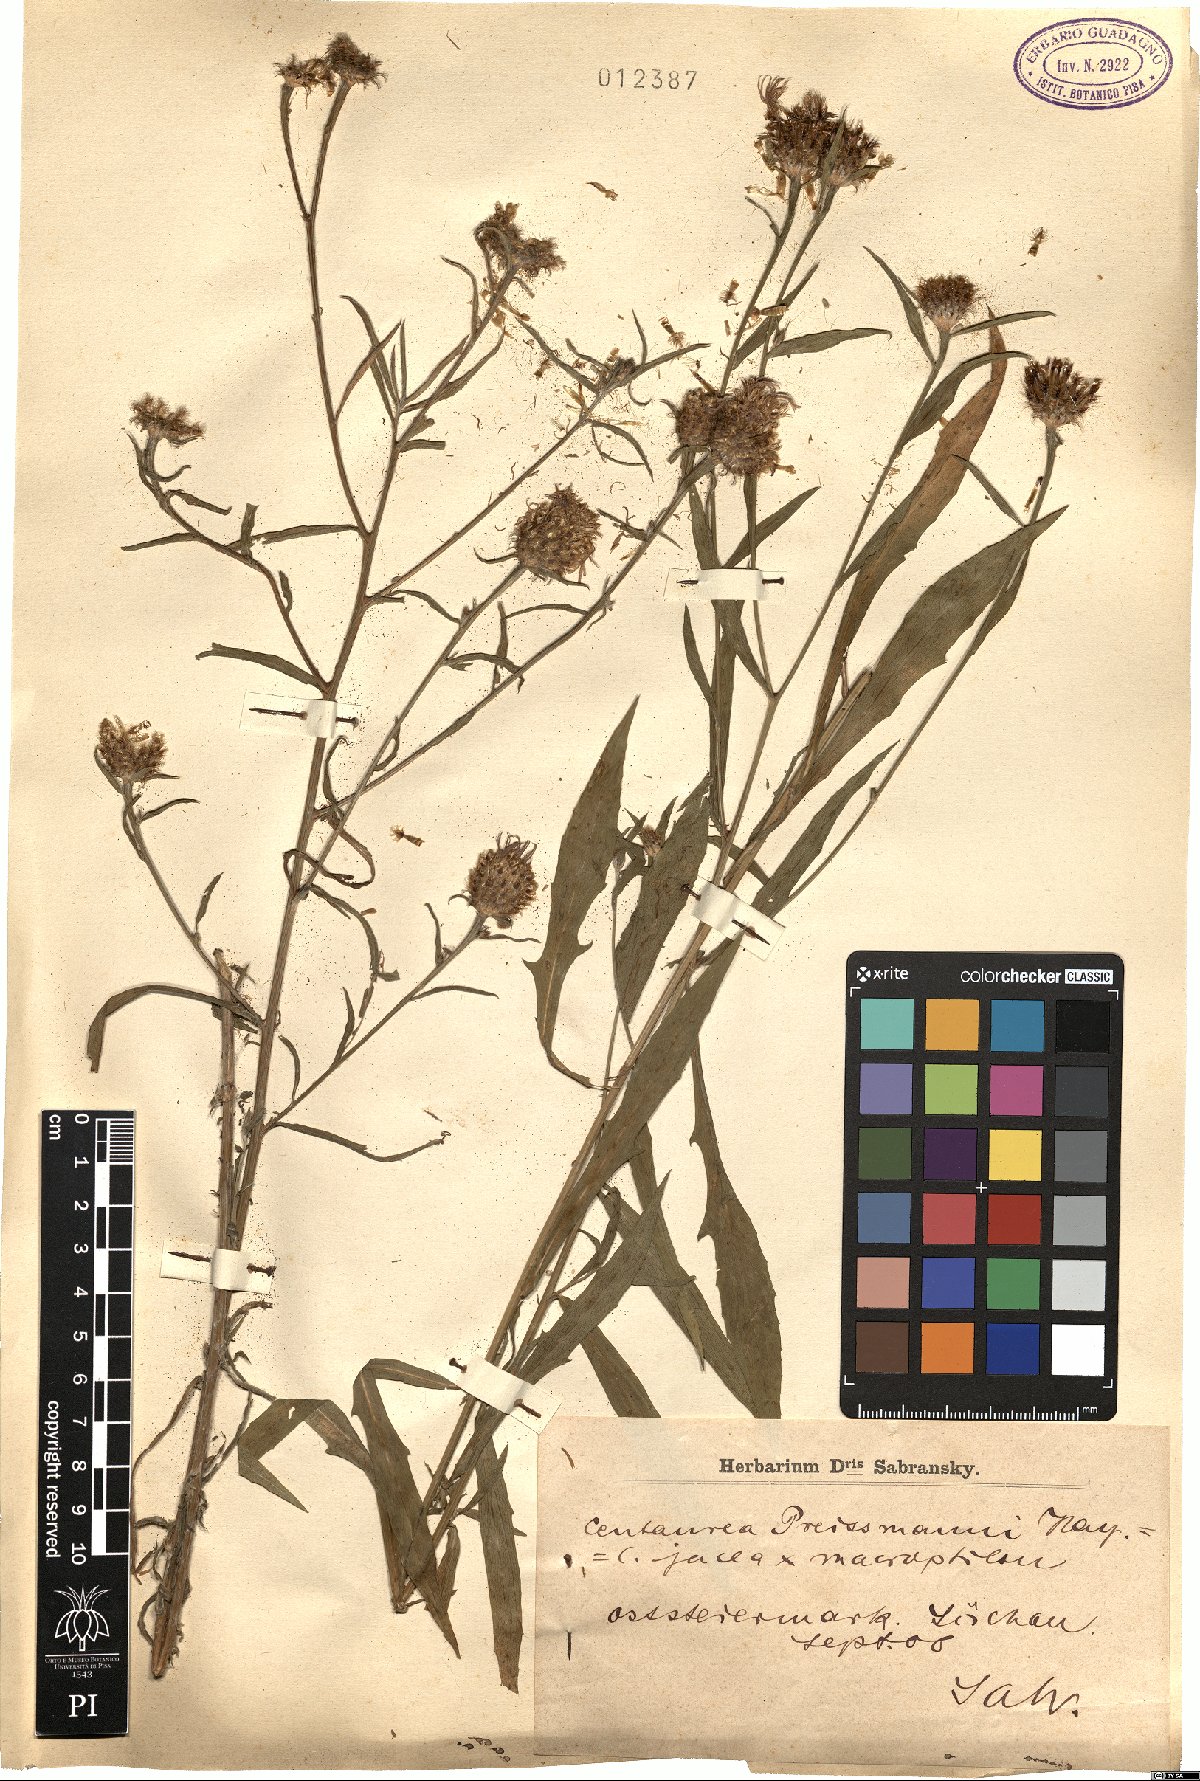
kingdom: Plantae
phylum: Tracheophyta
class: Magnoliopsida
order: Asterales
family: Asteraceae
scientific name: Asteraceae
